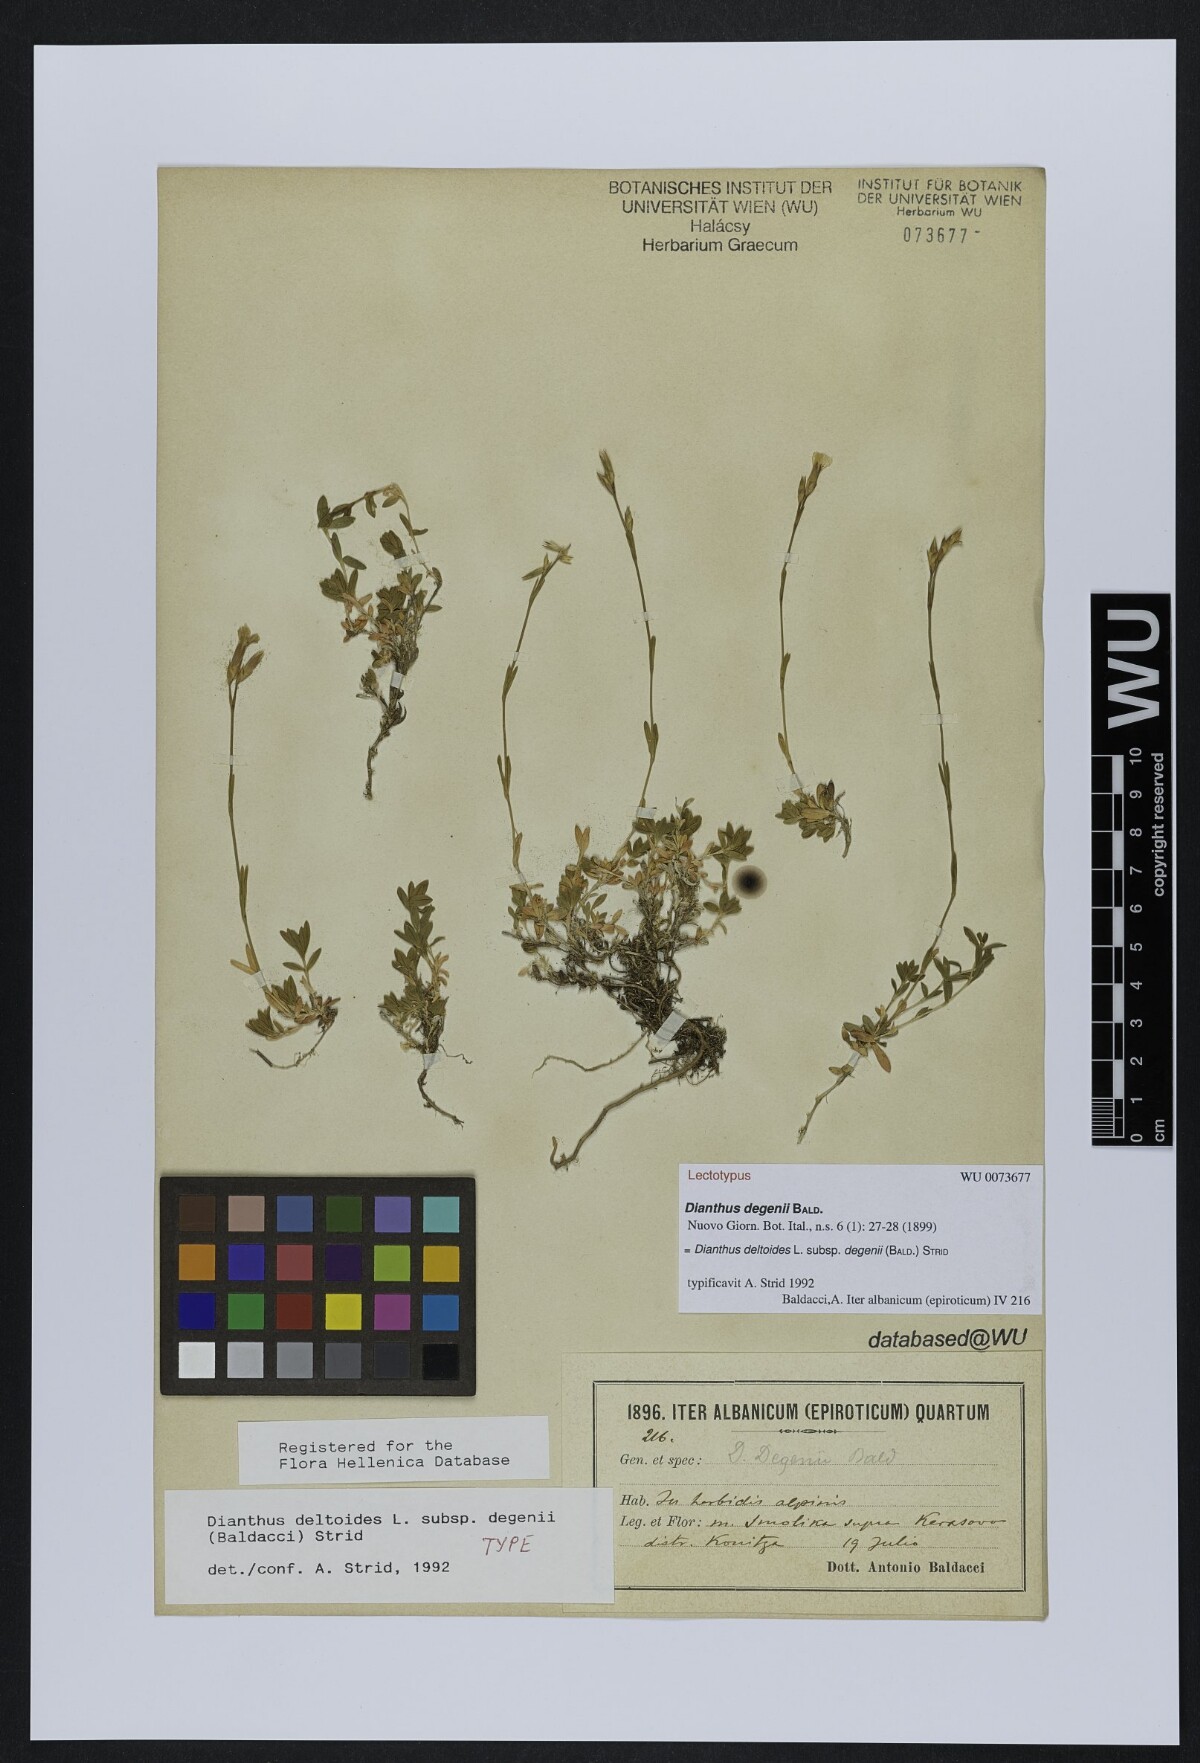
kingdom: Plantae
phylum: Tracheophyta
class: Magnoliopsida
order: Caryophyllales
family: Caryophyllaceae
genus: Dianthus
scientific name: Dianthus deltoides
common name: Maiden pink
